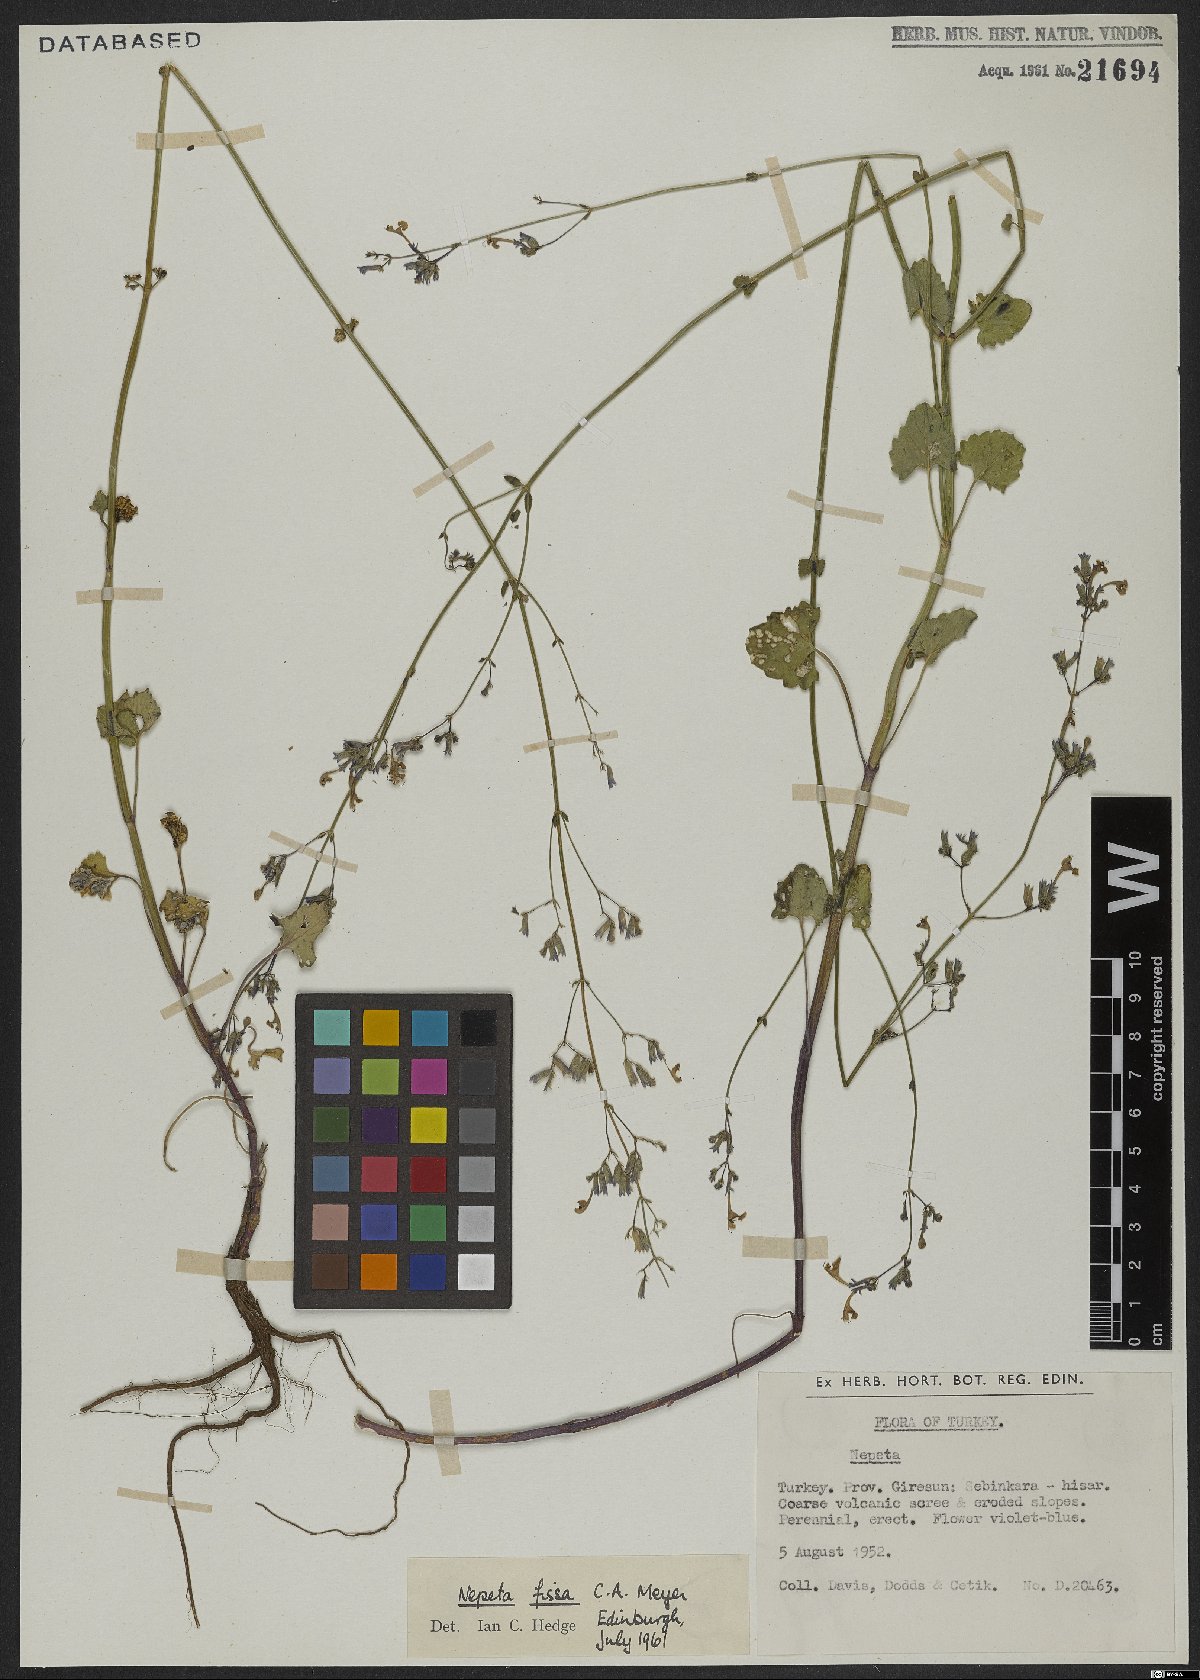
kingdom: Plantae
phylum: Tracheophyta
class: Magnoliopsida
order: Lamiales
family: Lamiaceae
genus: Nepeta
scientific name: Nepeta teucriifolia
